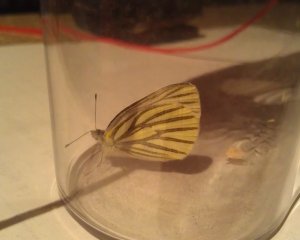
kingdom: Animalia
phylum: Arthropoda
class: Insecta
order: Lepidoptera
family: Pieridae
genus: Pieris
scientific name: Pieris oleracea
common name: Mustard White
